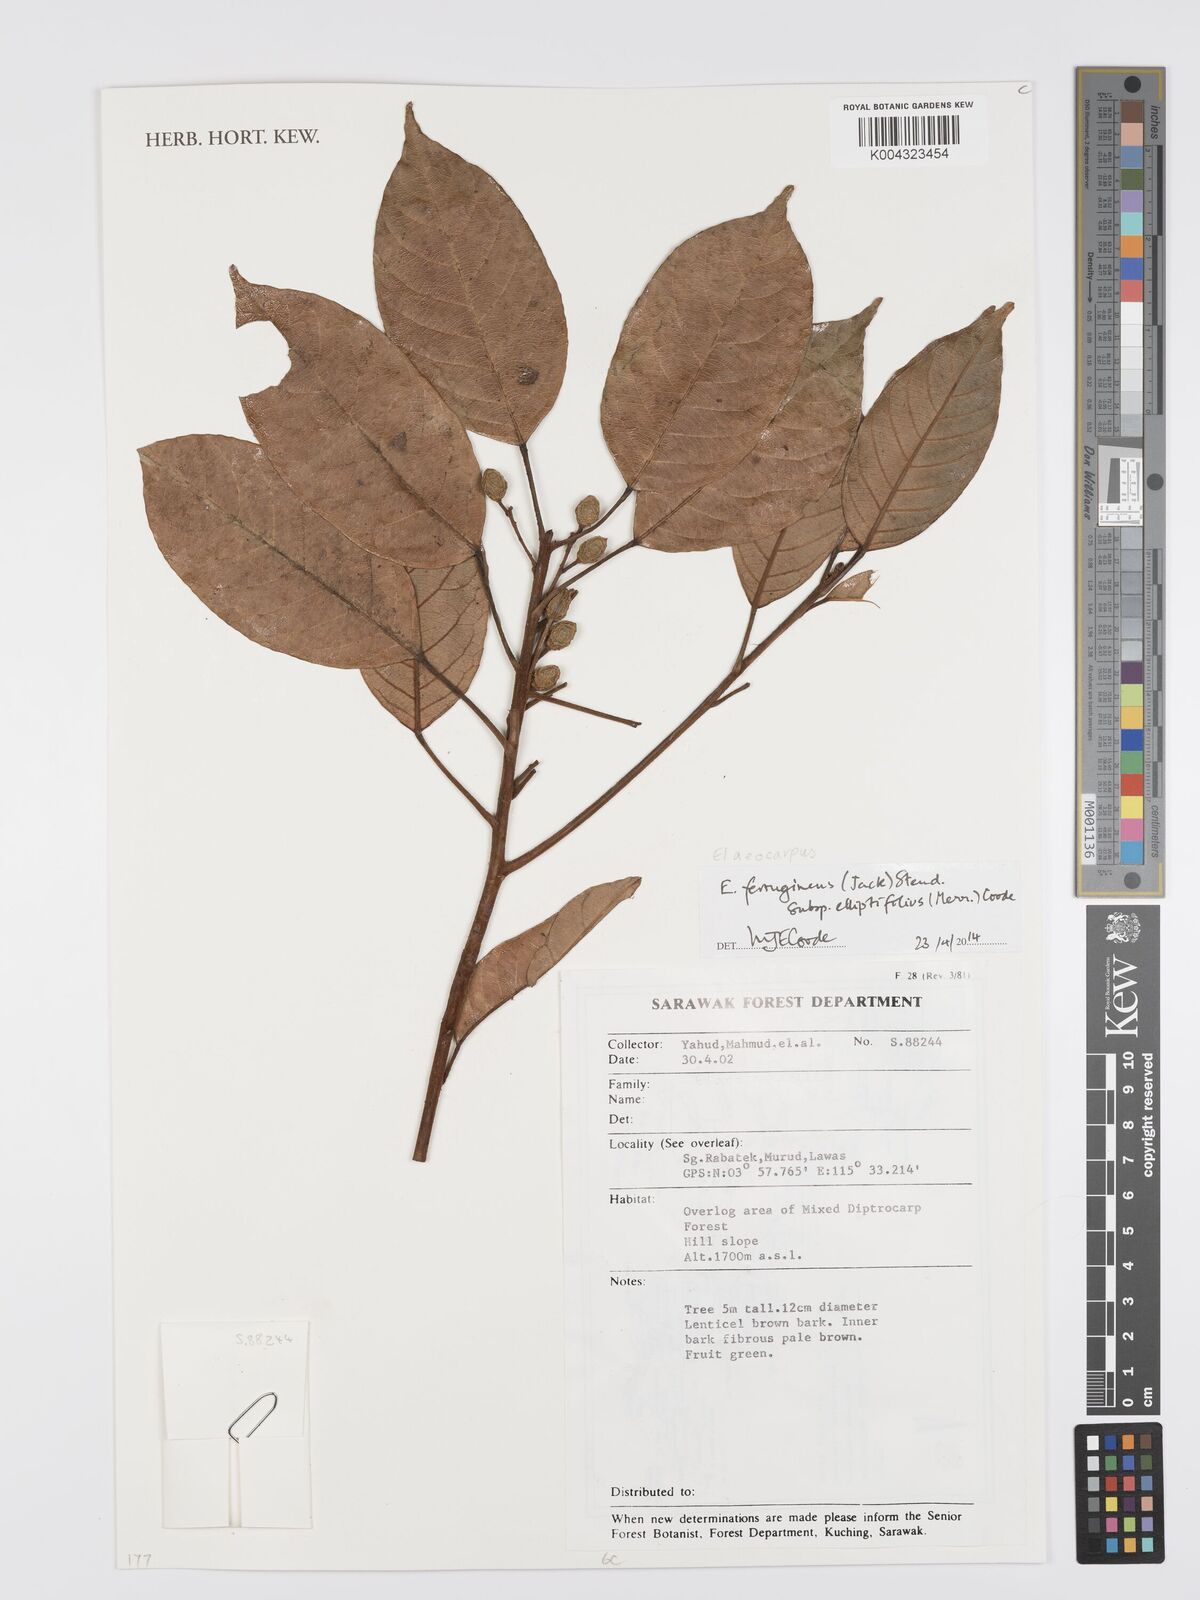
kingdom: Plantae
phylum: Tracheophyta
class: Magnoliopsida
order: Oxalidales
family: Elaeocarpaceae
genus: Elaeocarpus
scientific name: Elaeocarpus ferrugineus
